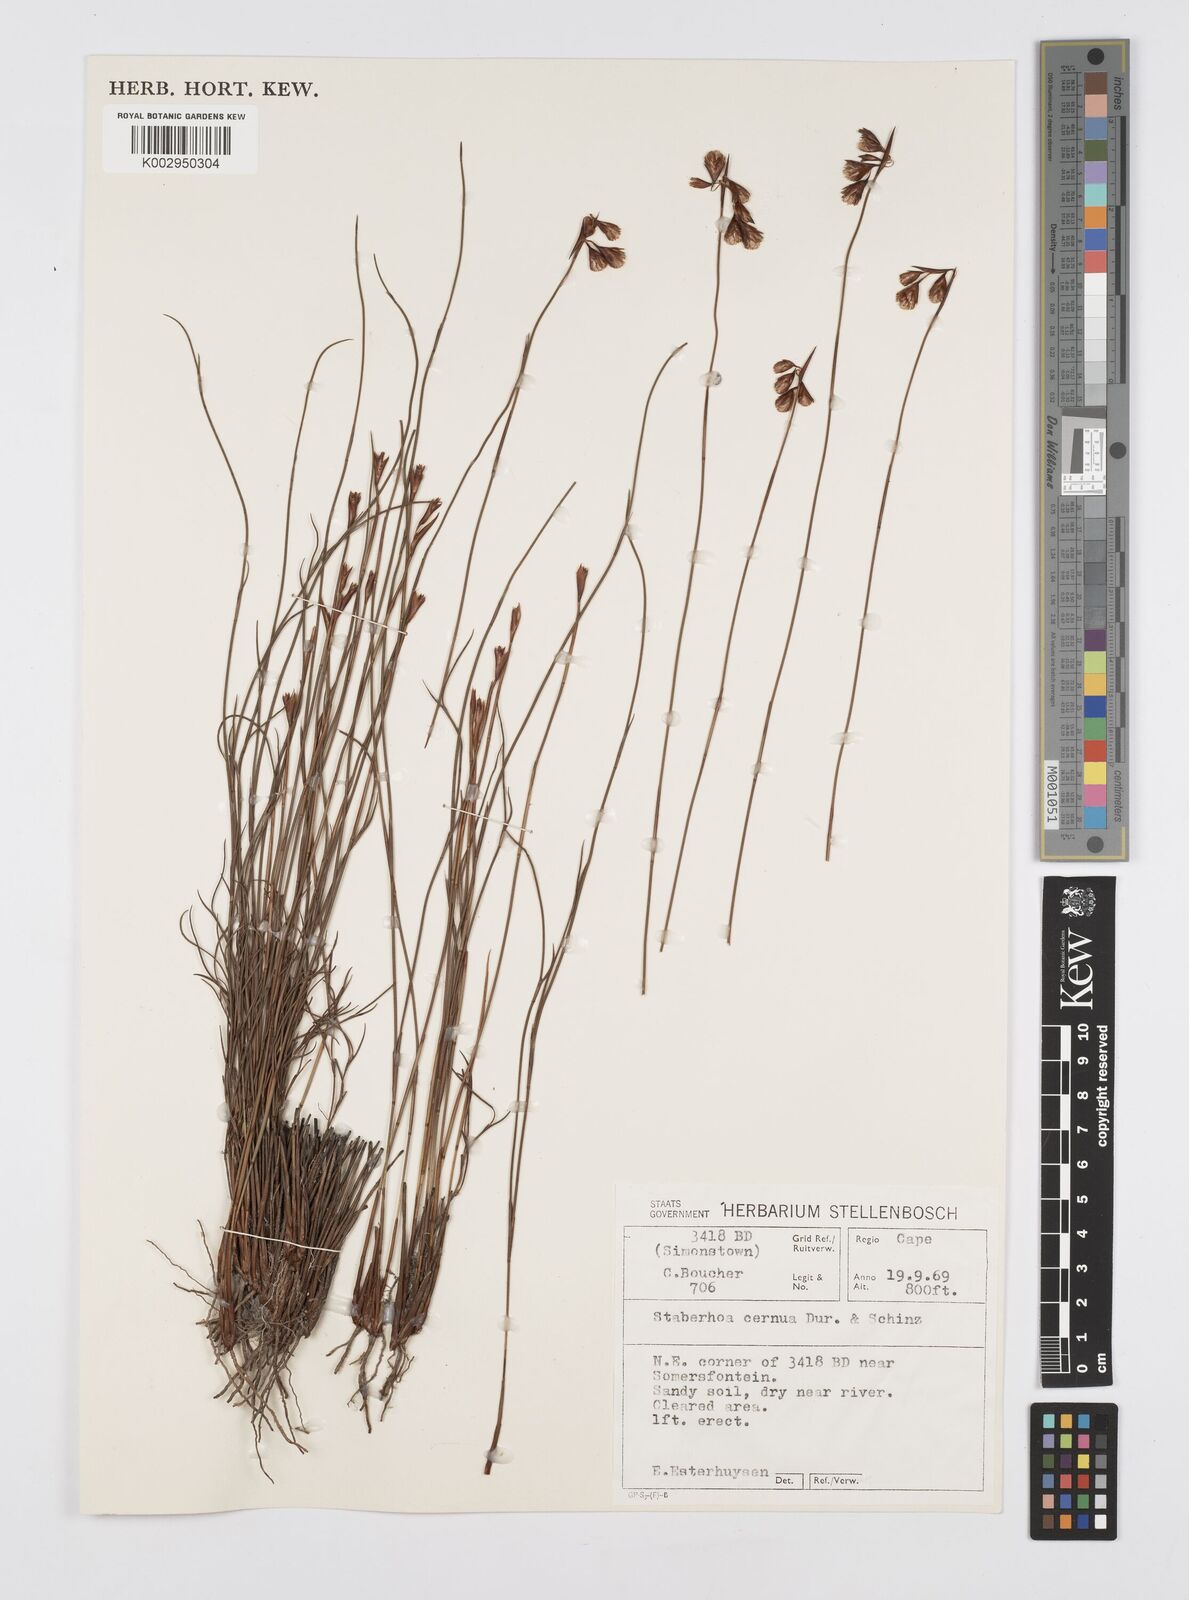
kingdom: Plantae
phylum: Tracheophyta
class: Liliopsida
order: Poales
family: Restionaceae
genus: Staberoha
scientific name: Staberoha cernua
